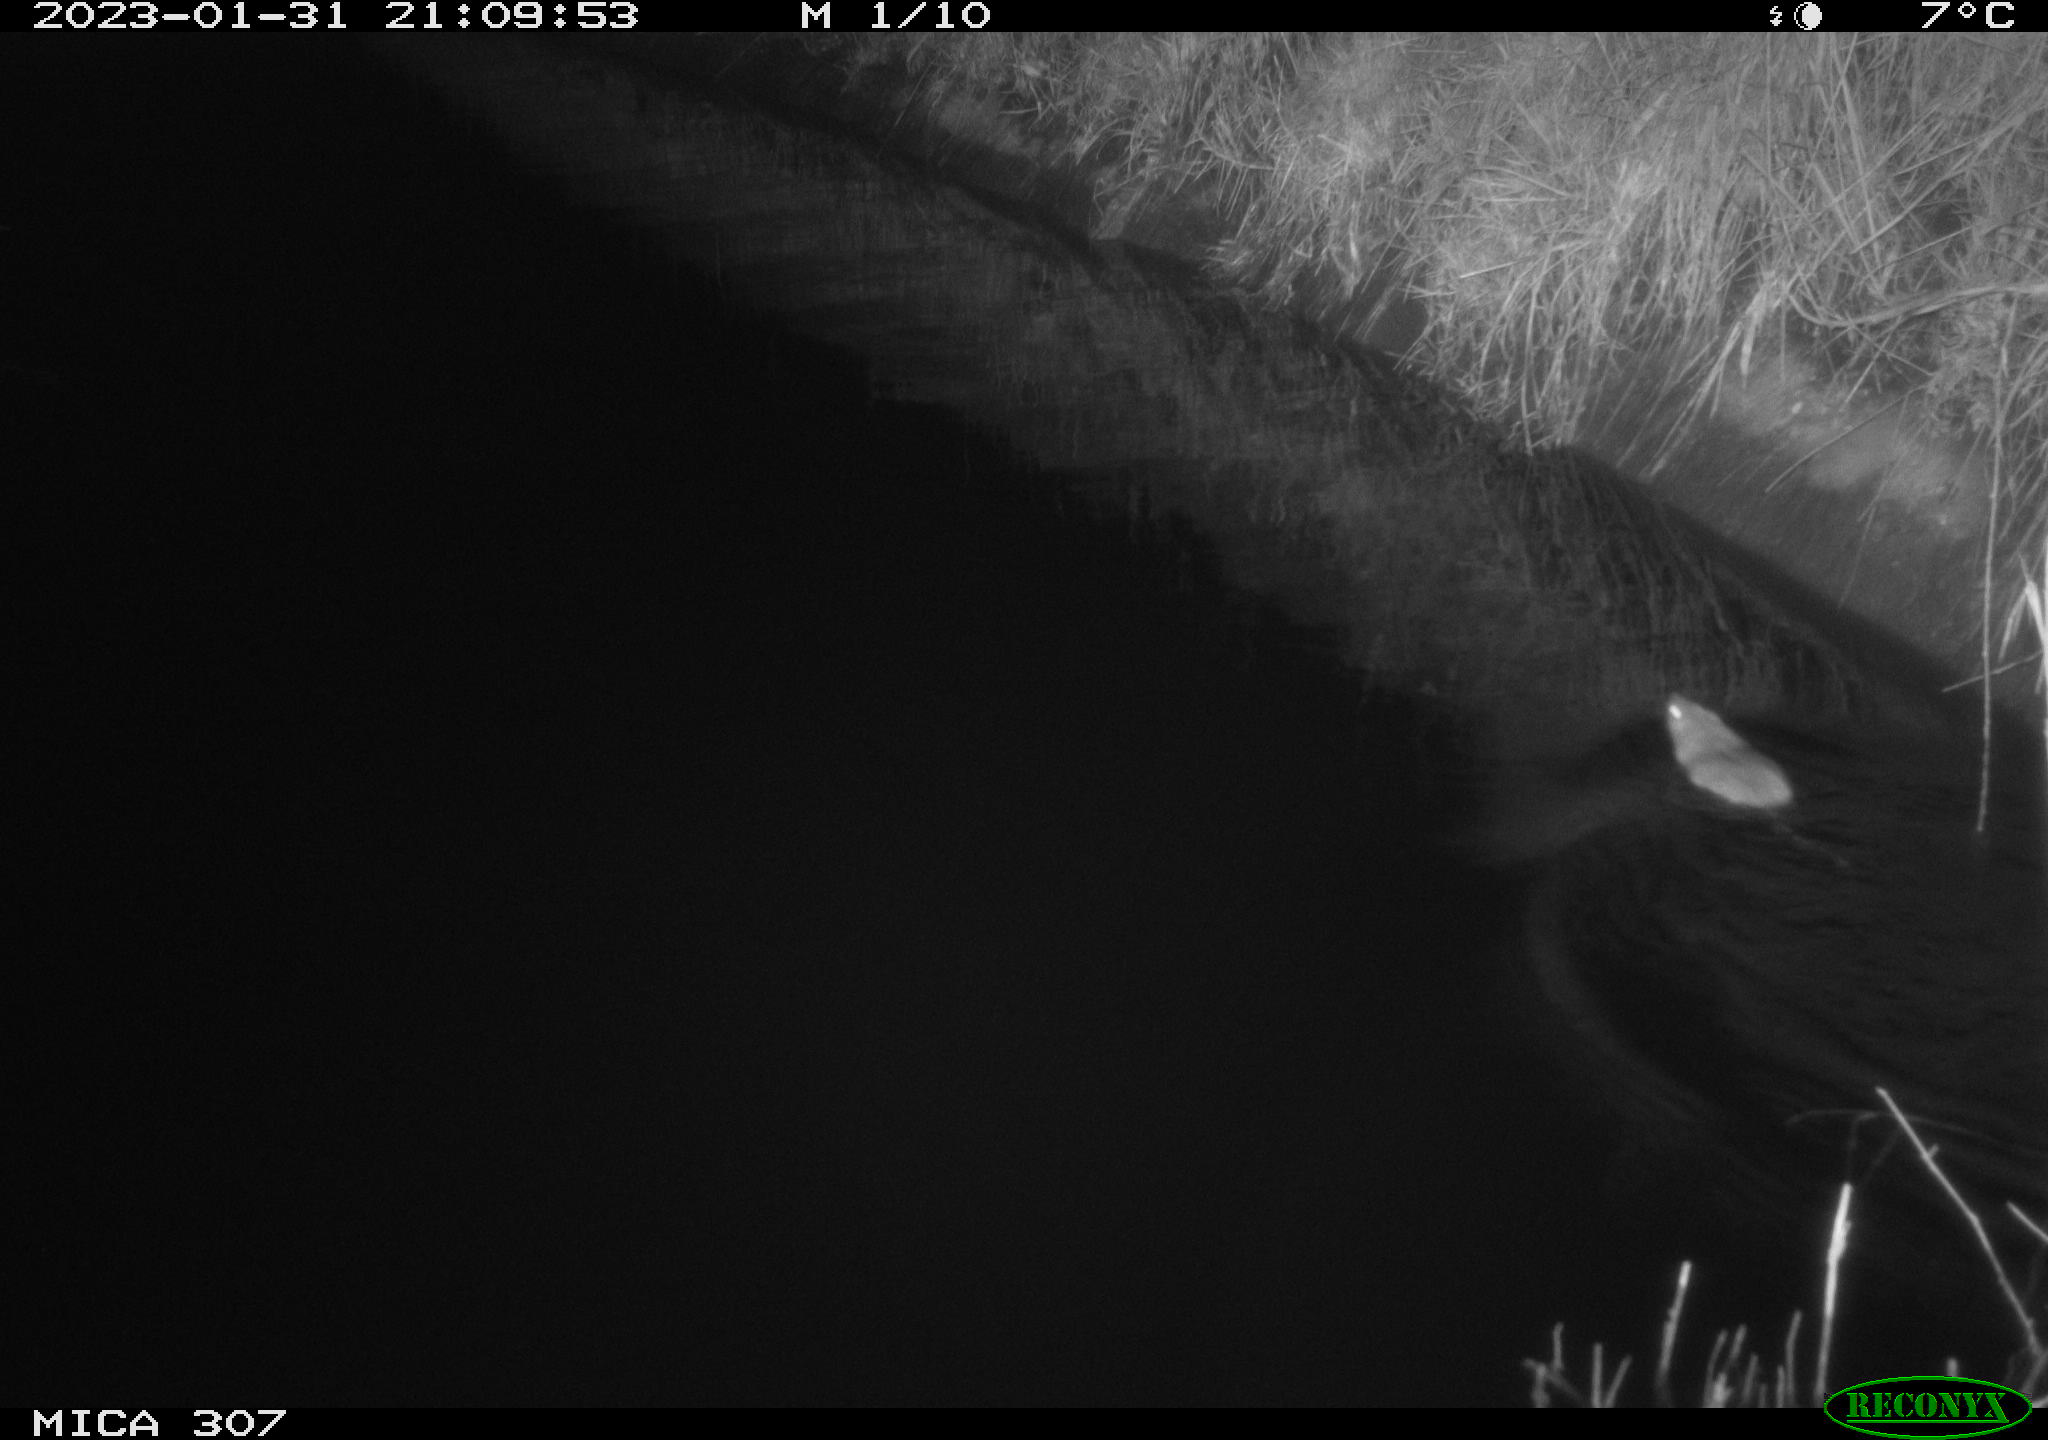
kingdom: Animalia
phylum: Chordata
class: Mammalia
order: Rodentia
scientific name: Rodentia
